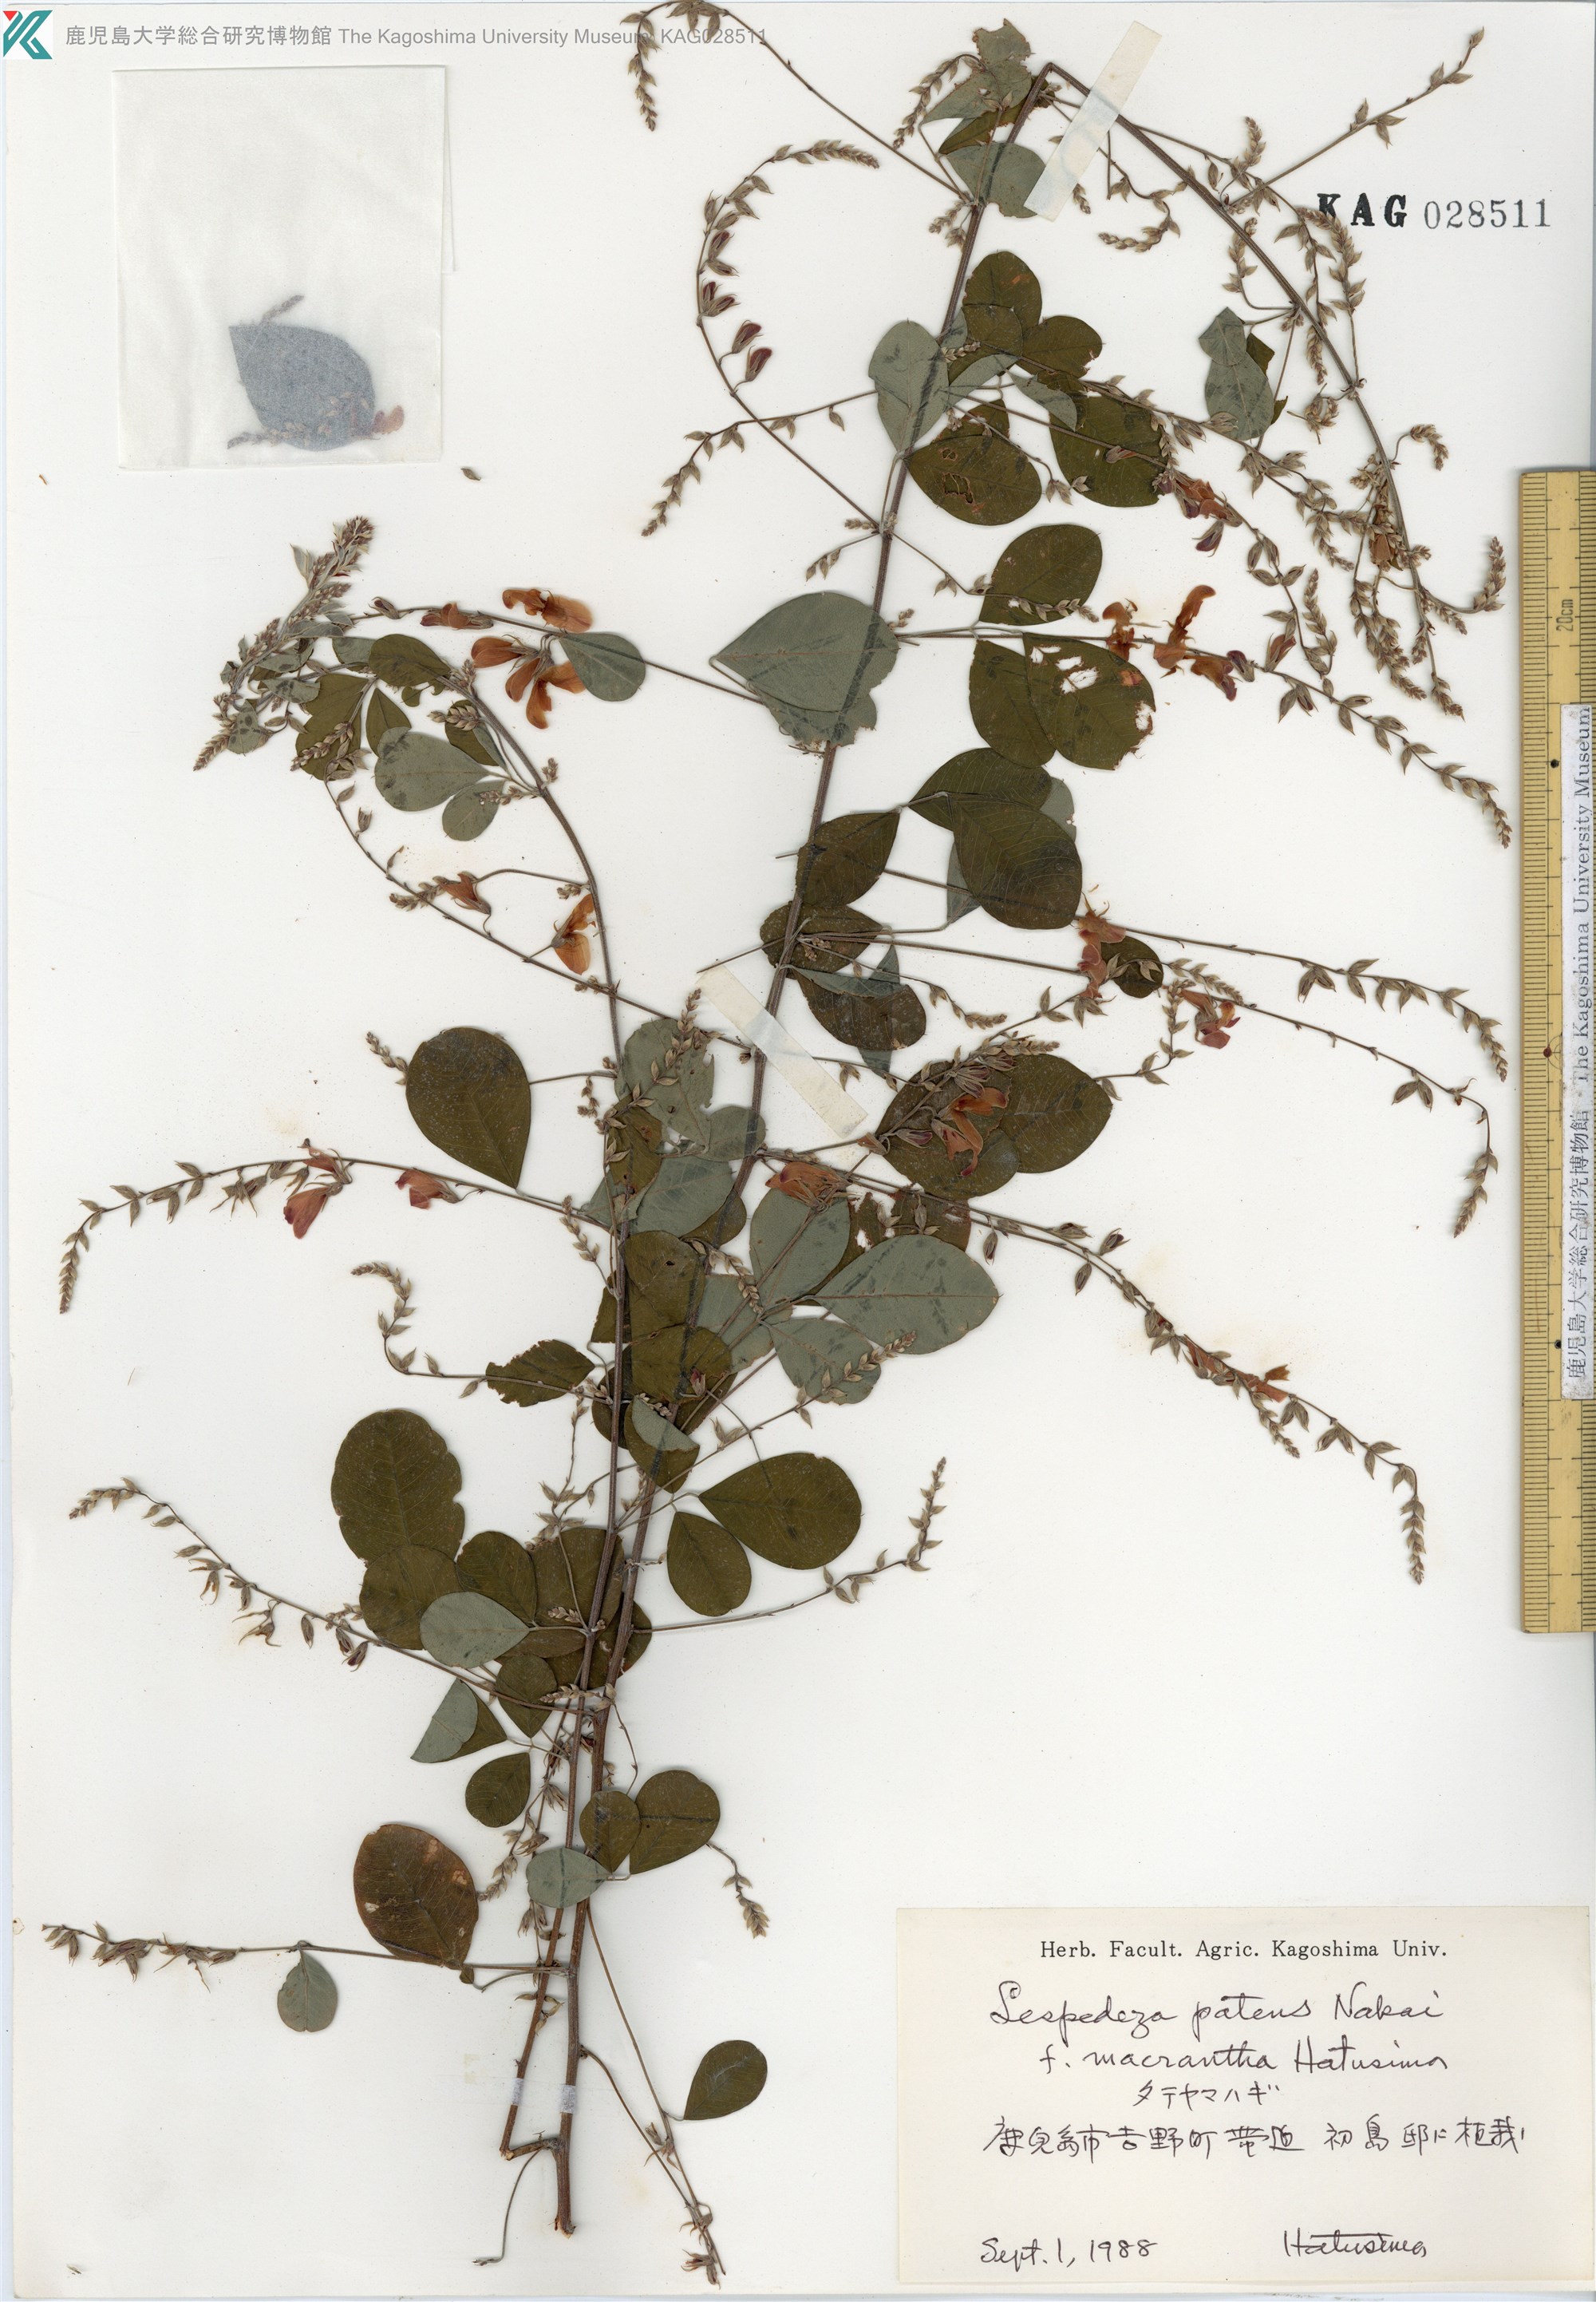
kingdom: Plantae
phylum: Tracheophyta
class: Magnoliopsida
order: Fabales
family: Fabaceae
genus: Lespedeza
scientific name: Lespedeza thunbergii
